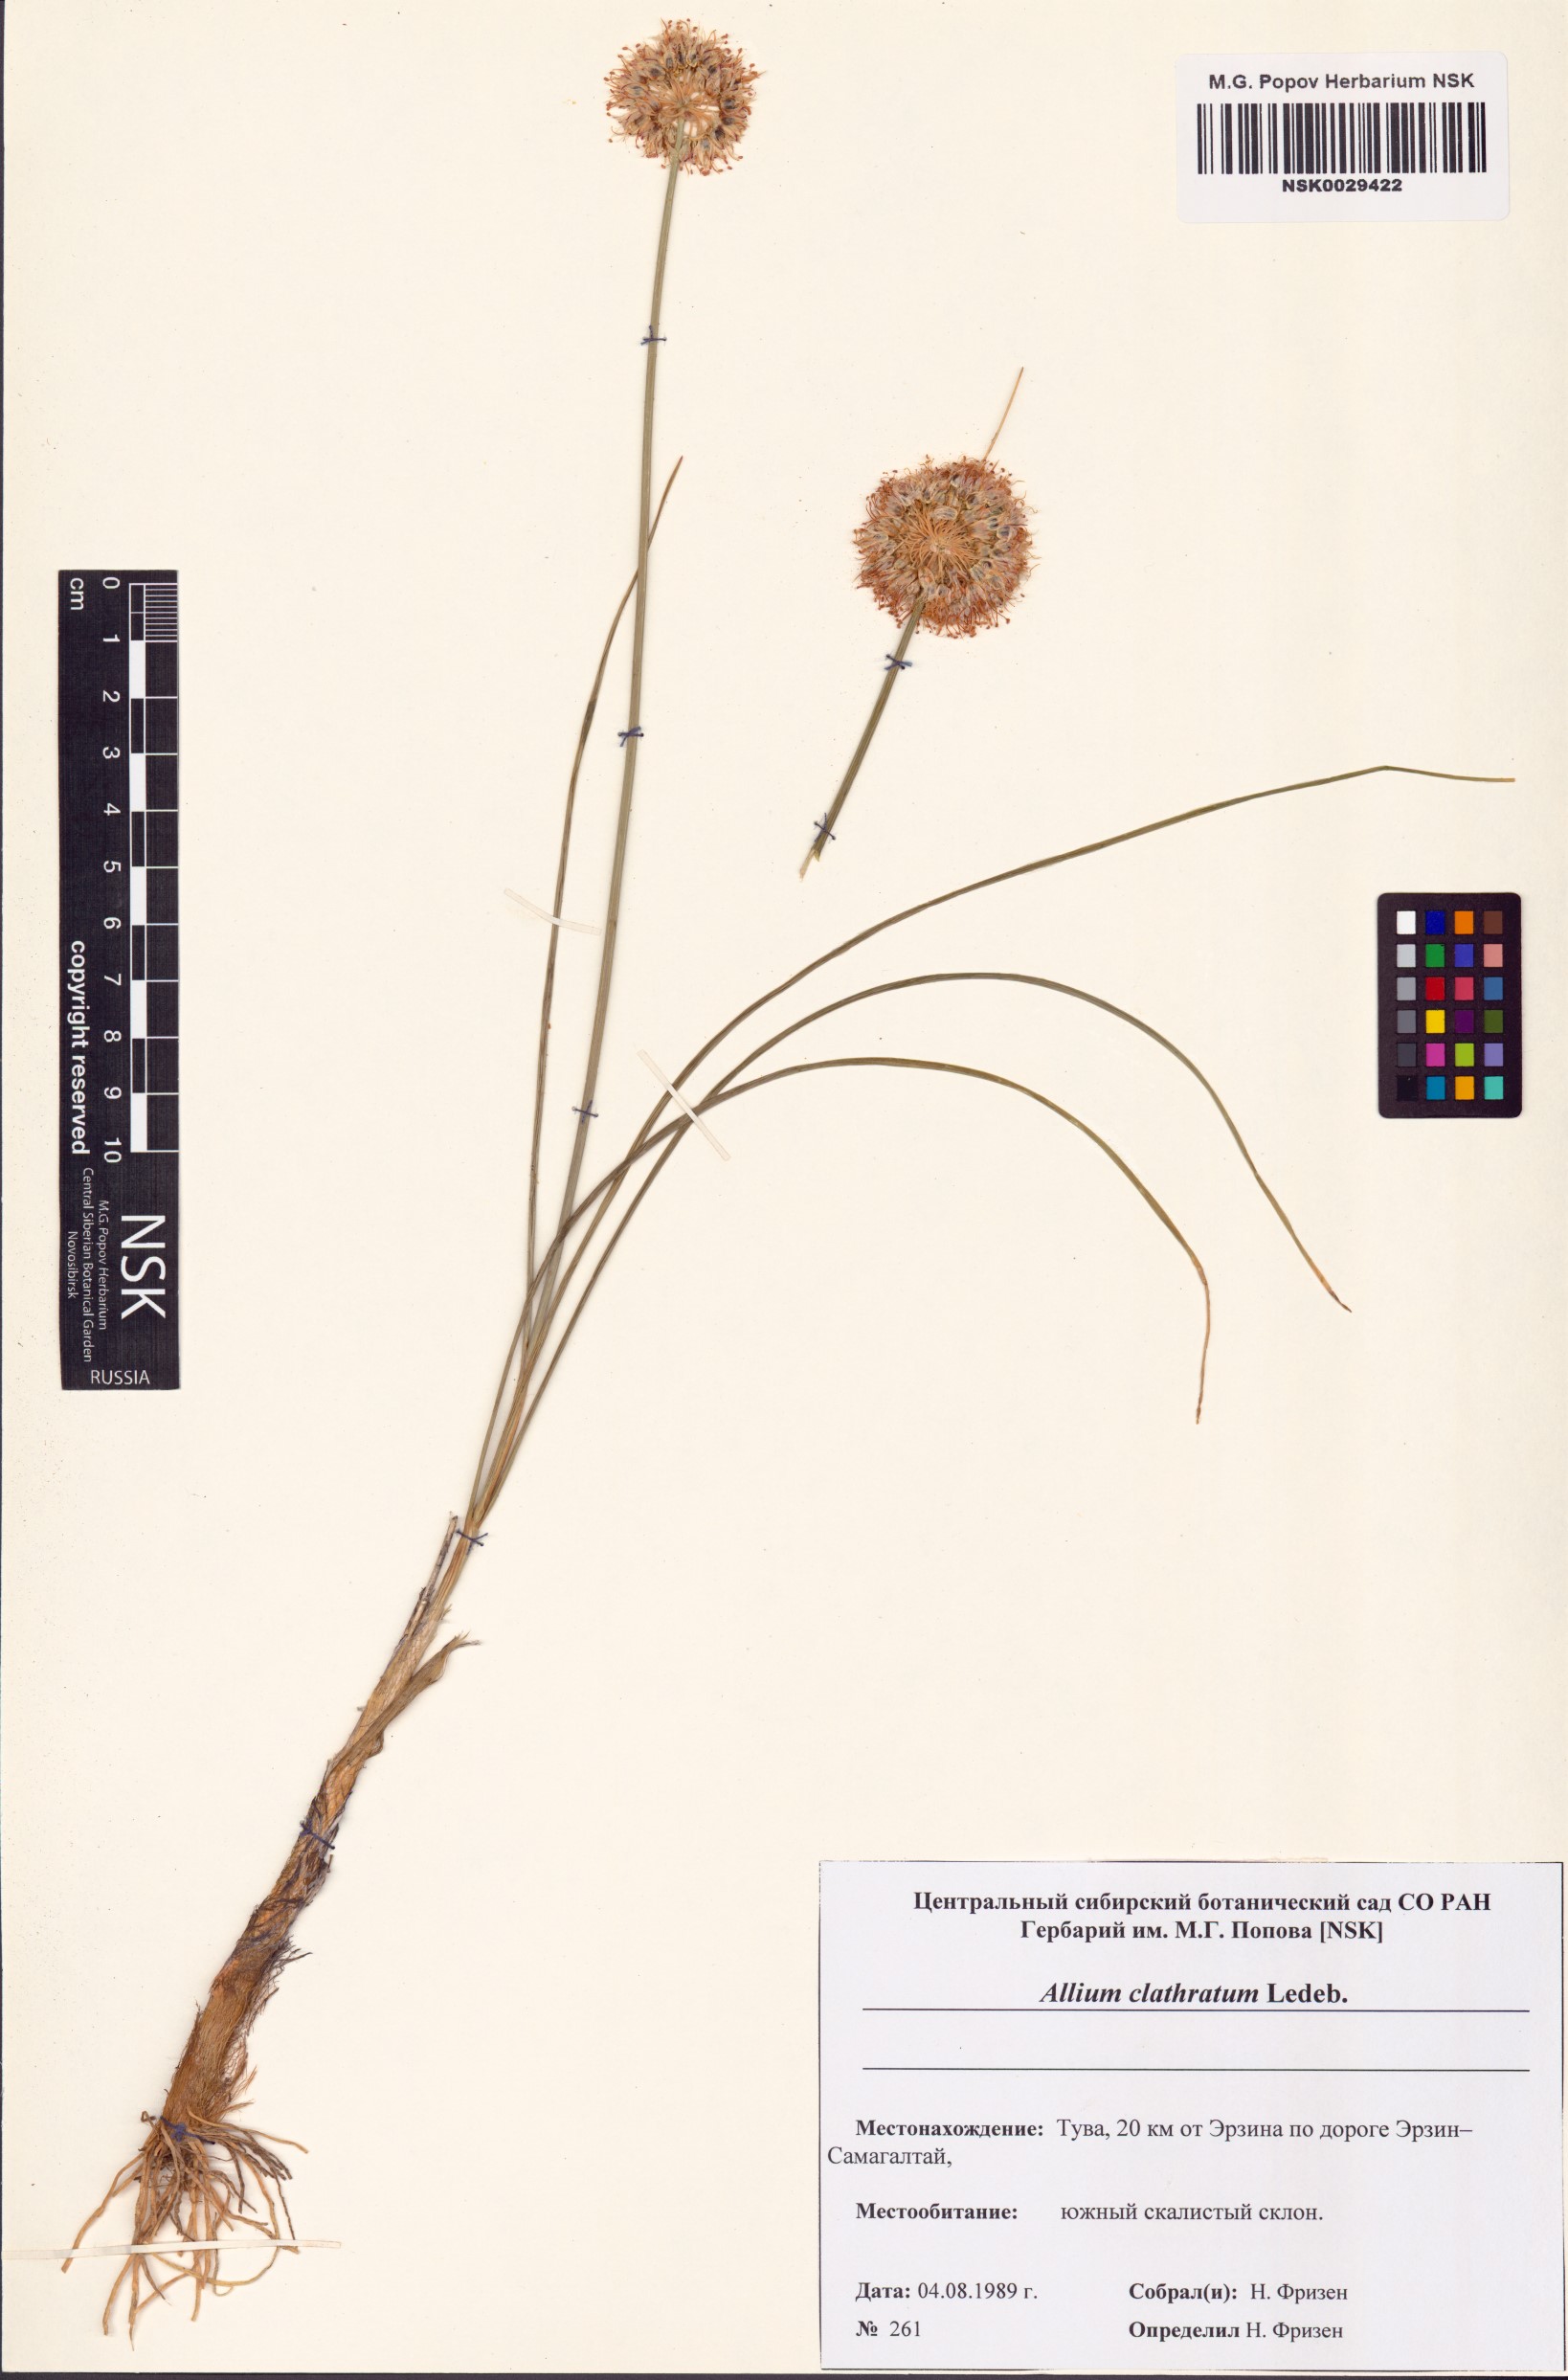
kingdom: Plantae
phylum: Tracheophyta
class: Liliopsida
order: Asparagales
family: Amaryllidaceae
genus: Allium
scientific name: Allium clathratum
